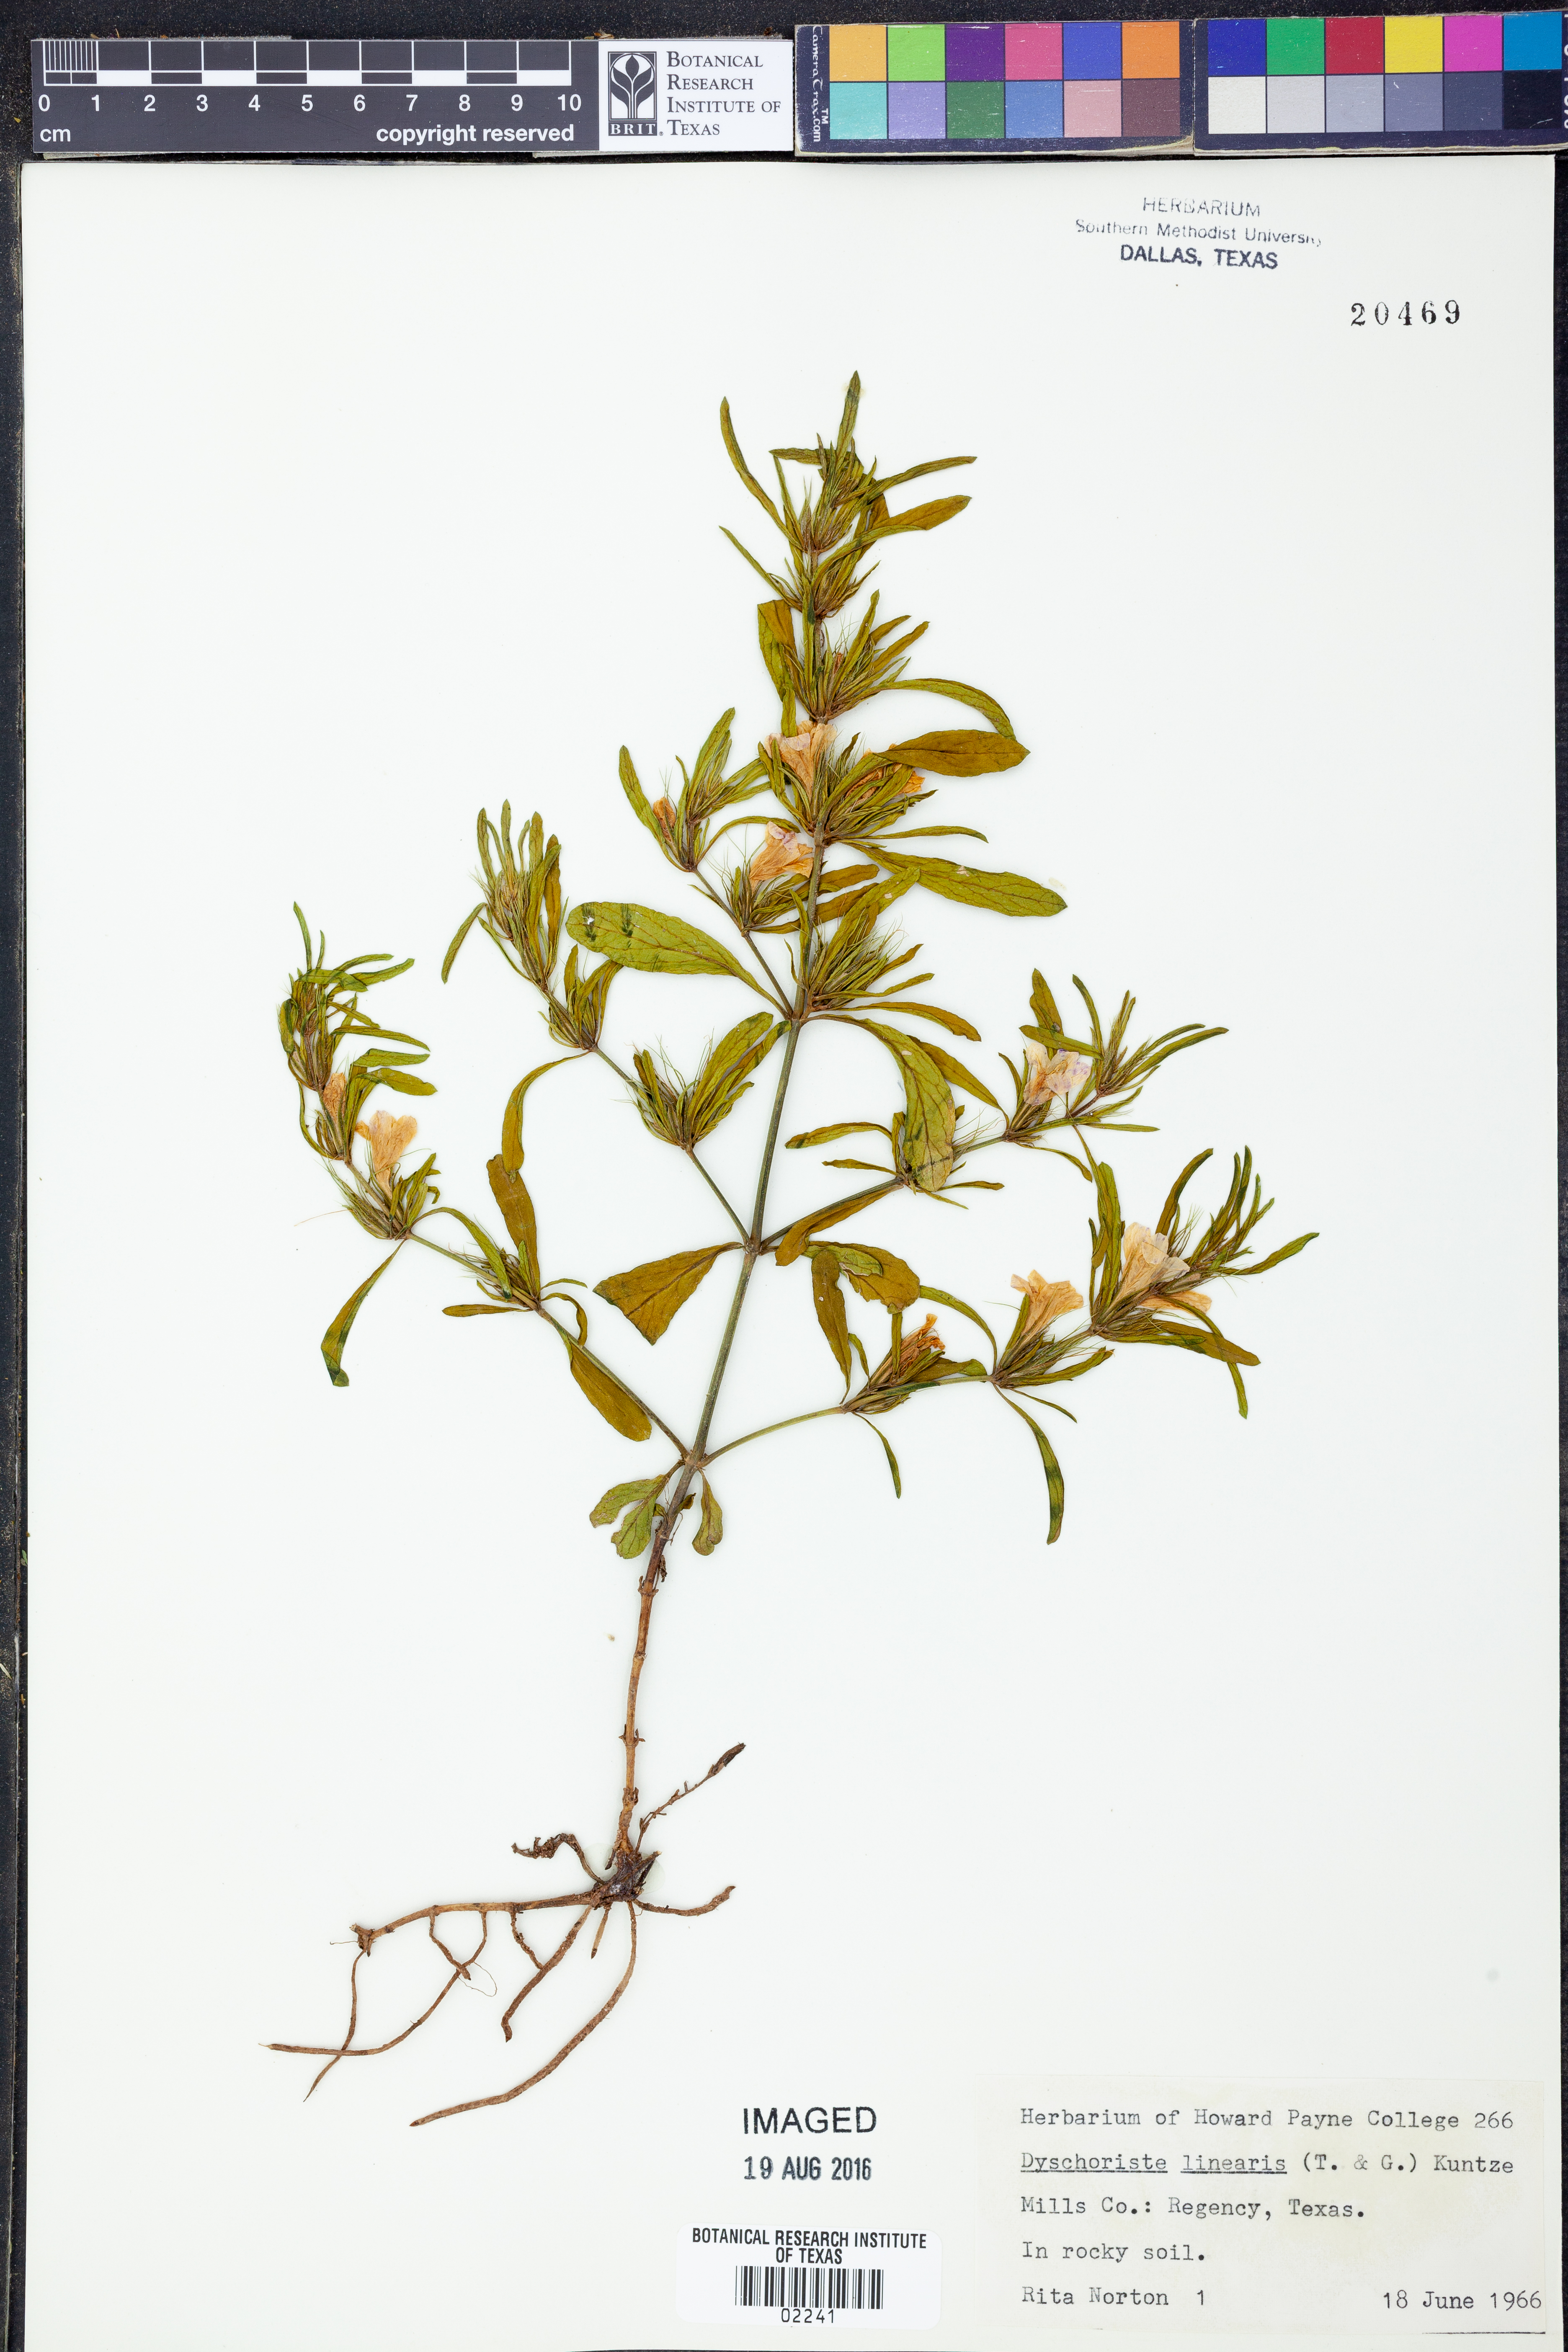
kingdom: Plantae
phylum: Tracheophyta
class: Magnoliopsida
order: Lamiales
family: Acanthaceae
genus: Dyschoriste
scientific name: Dyschoriste linearis
